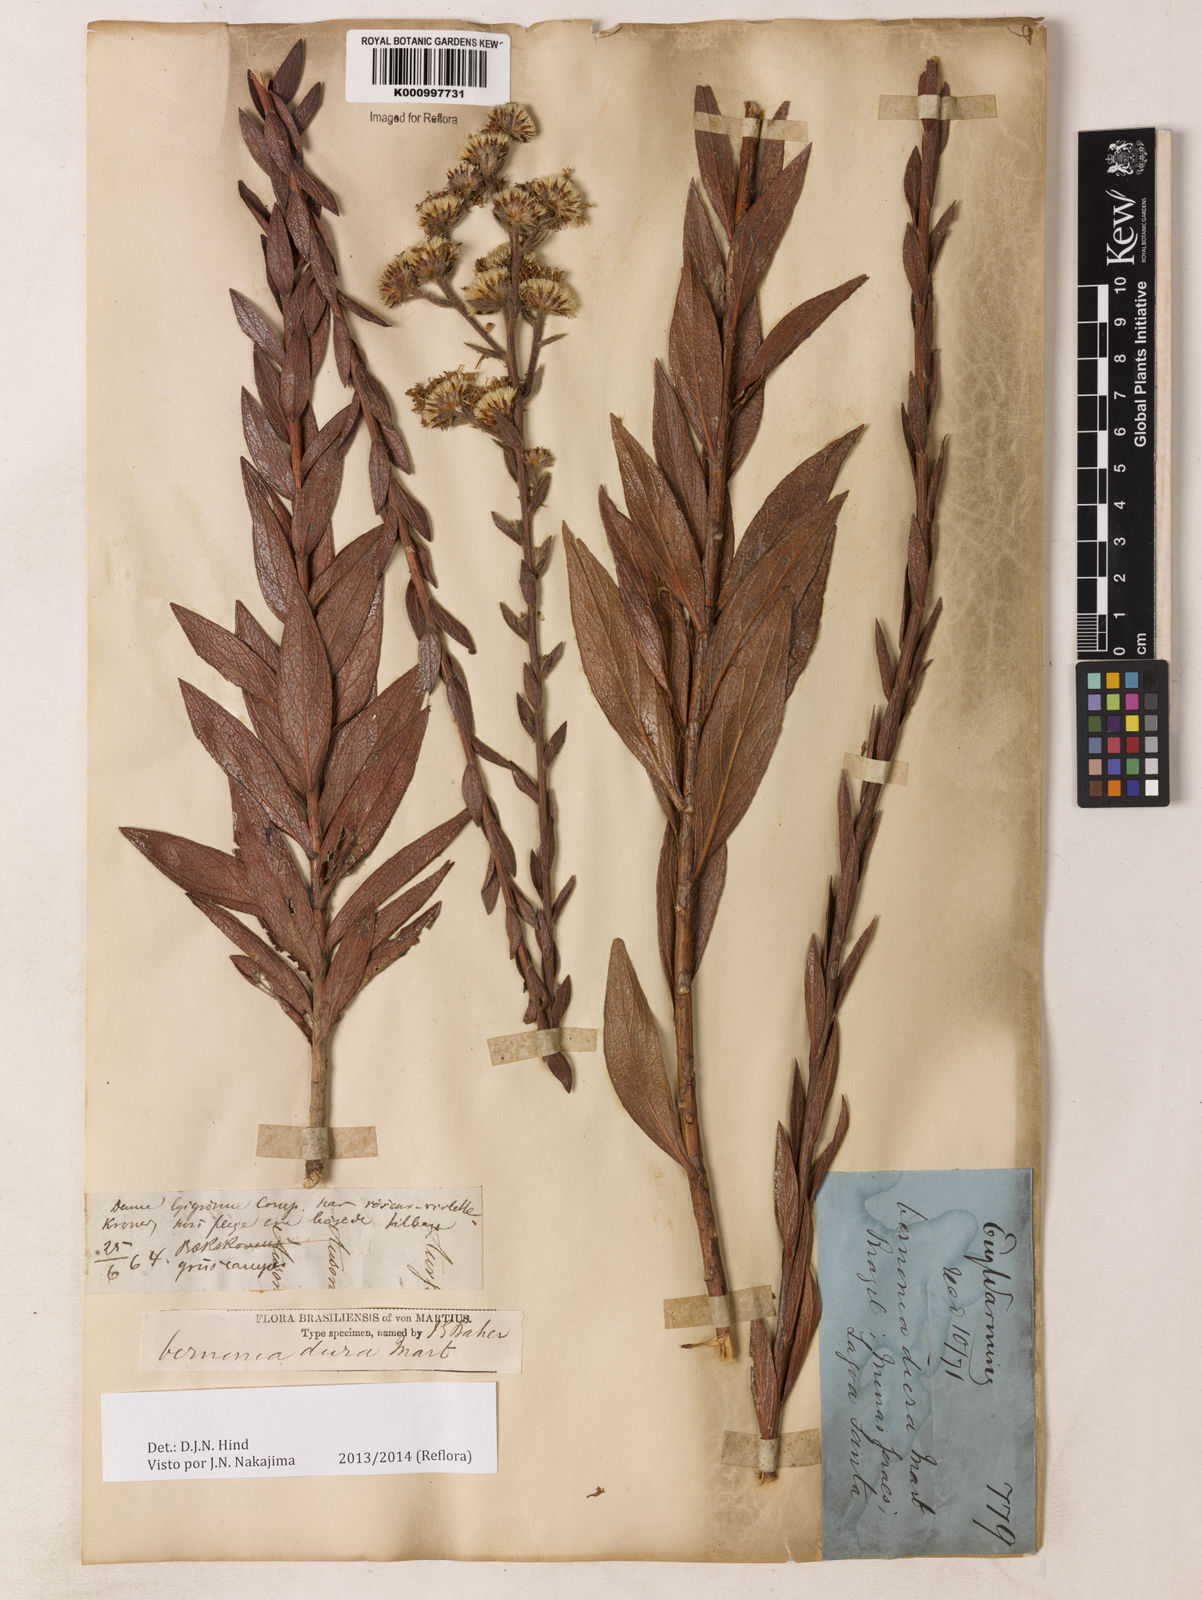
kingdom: Plantae
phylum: Tracheophyta
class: Magnoliopsida
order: Asterales
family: Asteraceae
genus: Lessingianthus
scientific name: Lessingianthus durus
